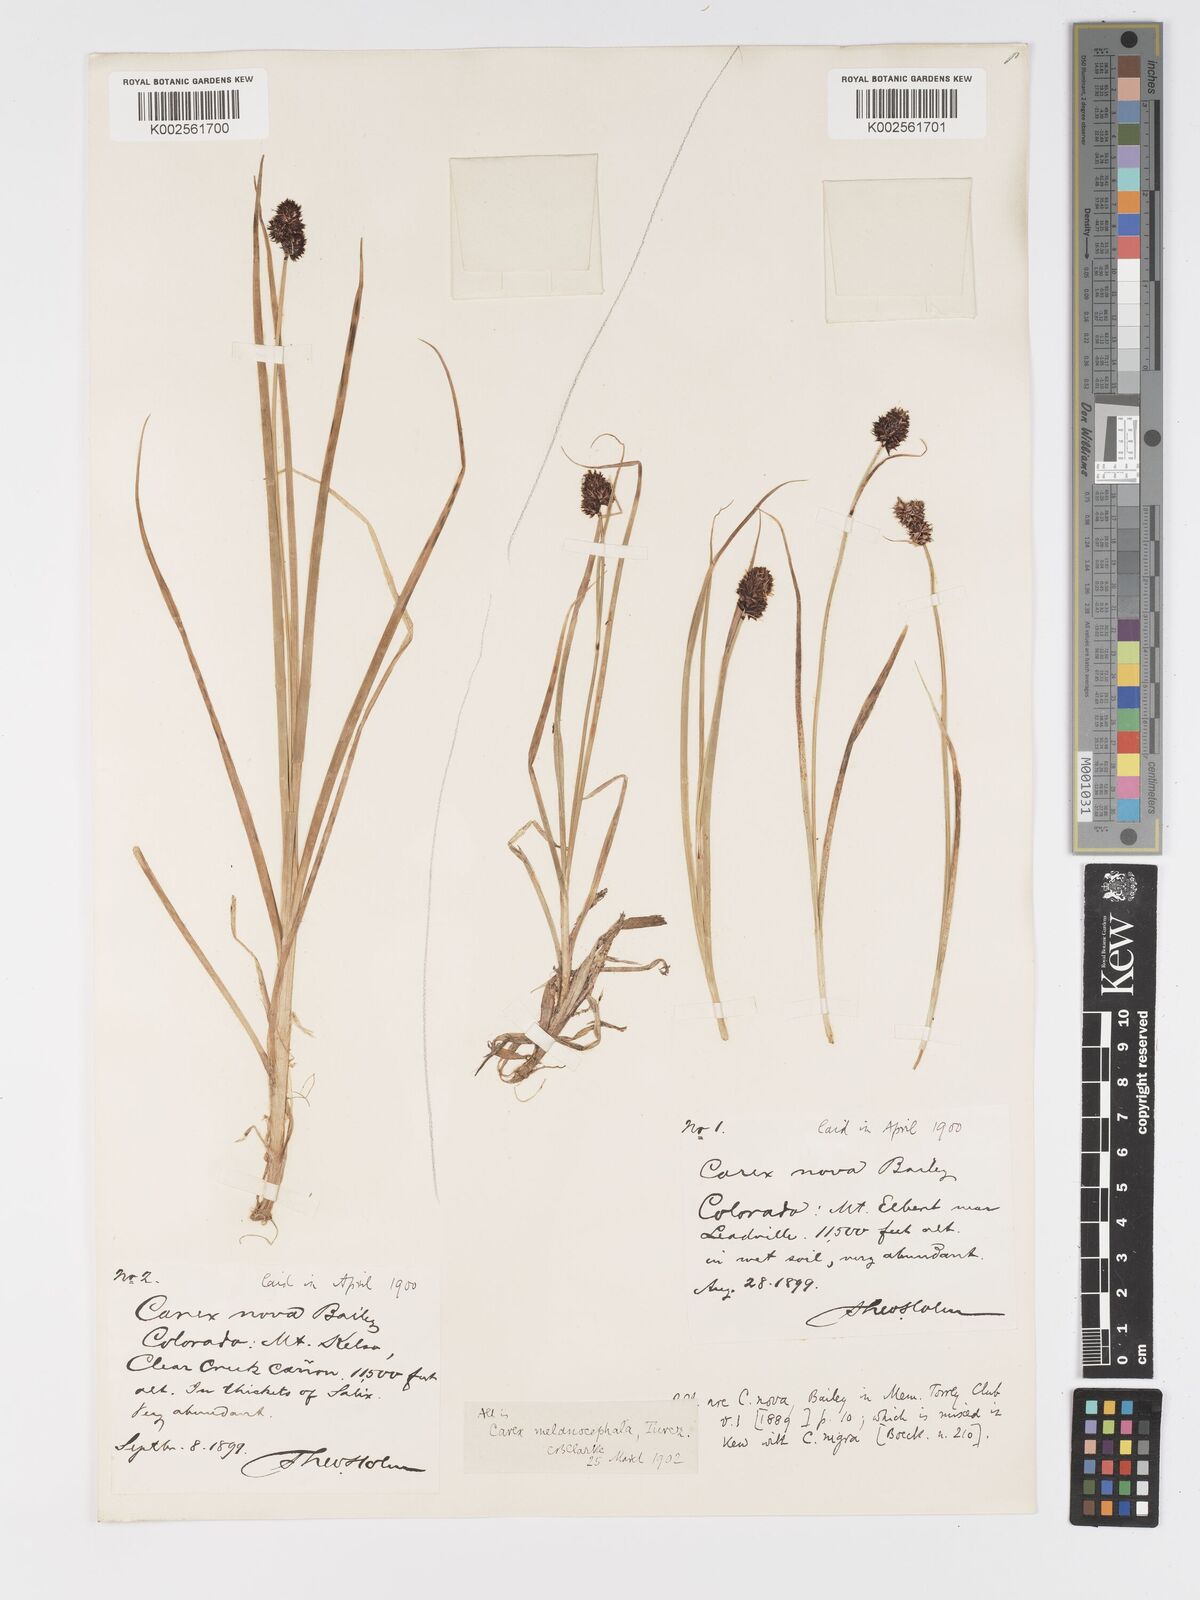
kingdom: Plantae
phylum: Tracheophyta
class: Liliopsida
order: Poales
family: Cyperaceae
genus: Carex
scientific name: Carex nova
